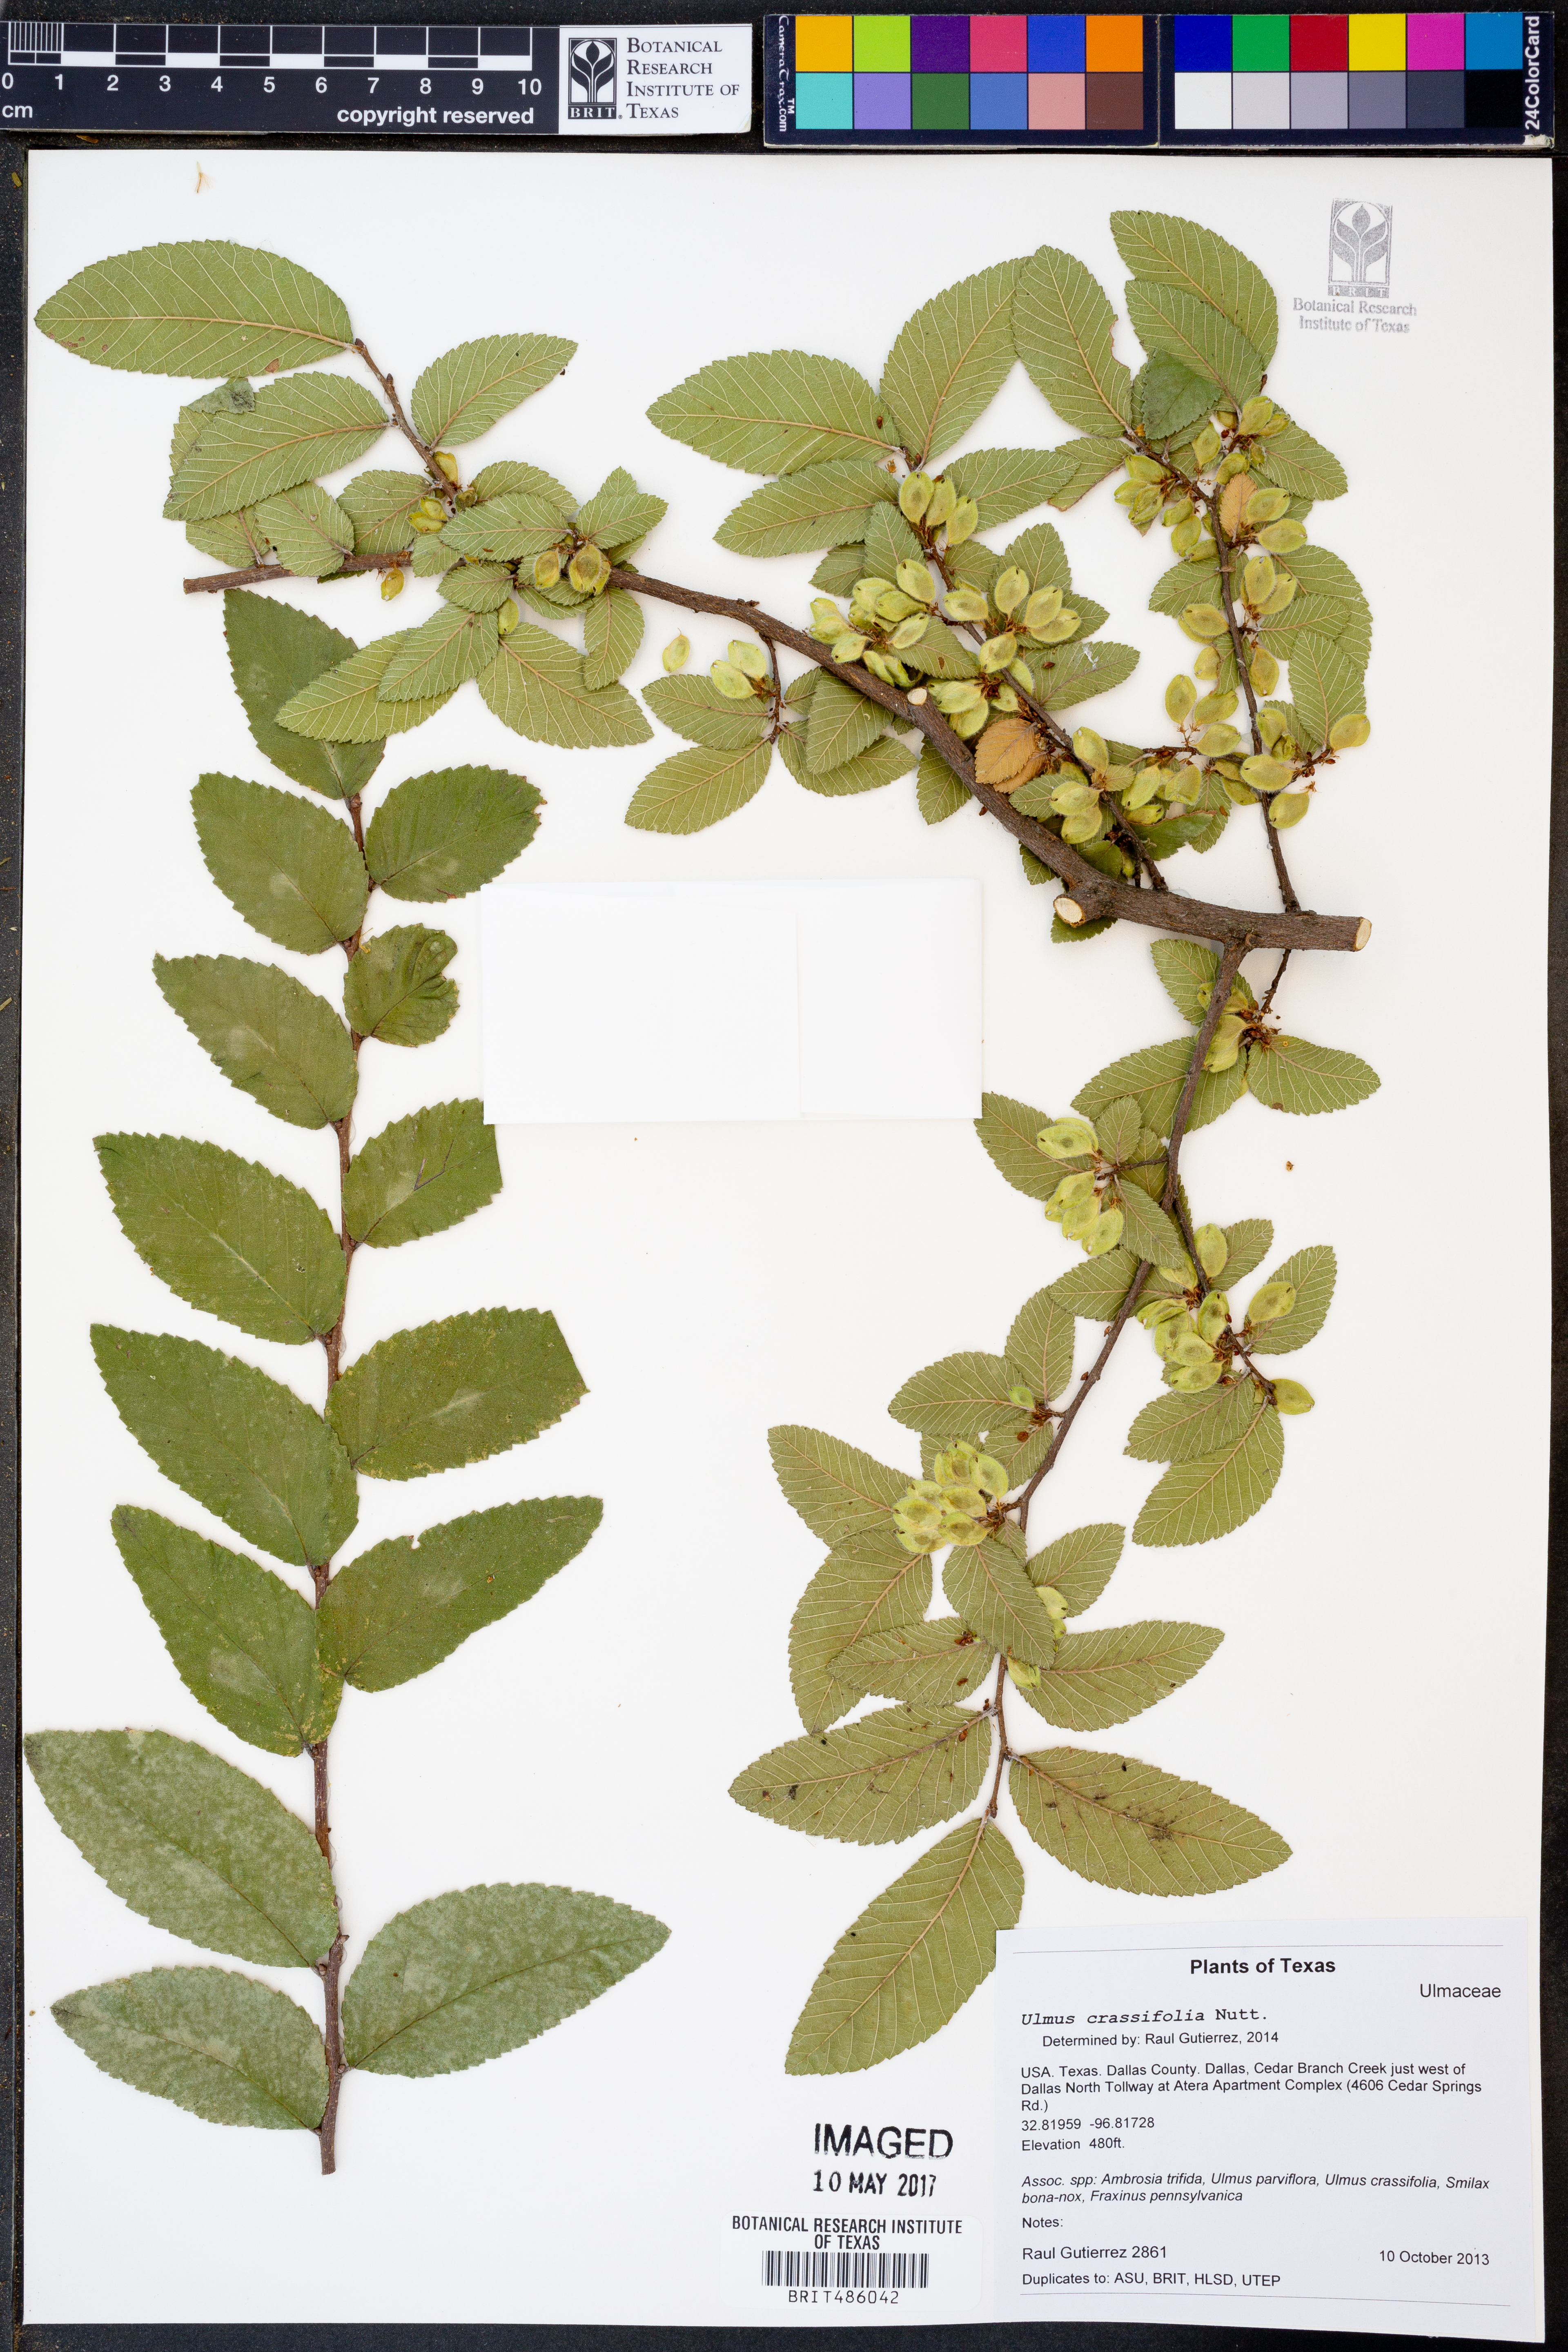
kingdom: Plantae
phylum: Tracheophyta
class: Magnoliopsida
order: Rosales
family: Ulmaceae
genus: Ulmus
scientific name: Ulmus crassifolia
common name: Basket elm
